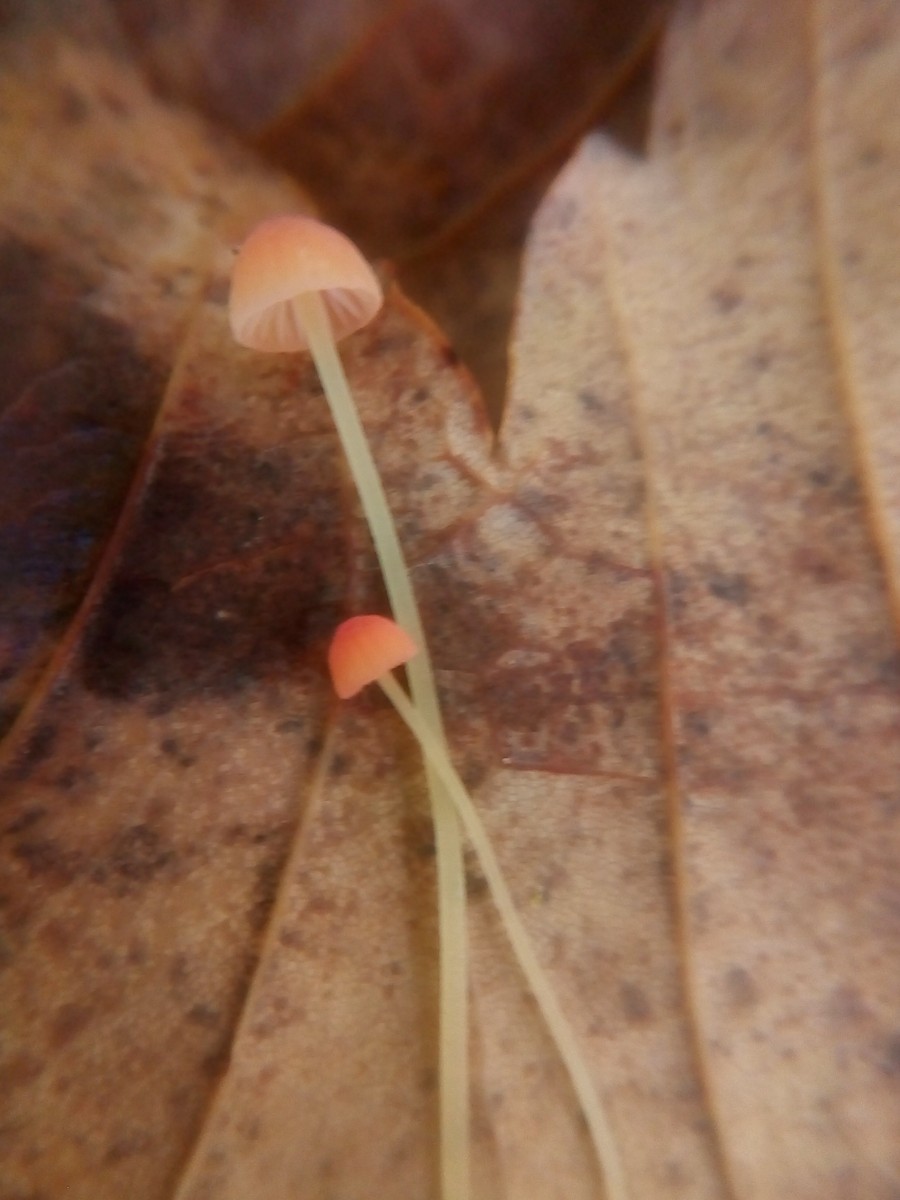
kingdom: Fungi
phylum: Basidiomycota
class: Agaricomycetes
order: Agaricales
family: Mycenaceae
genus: Mycena
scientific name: Mycena acicula
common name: orange huesvamp
